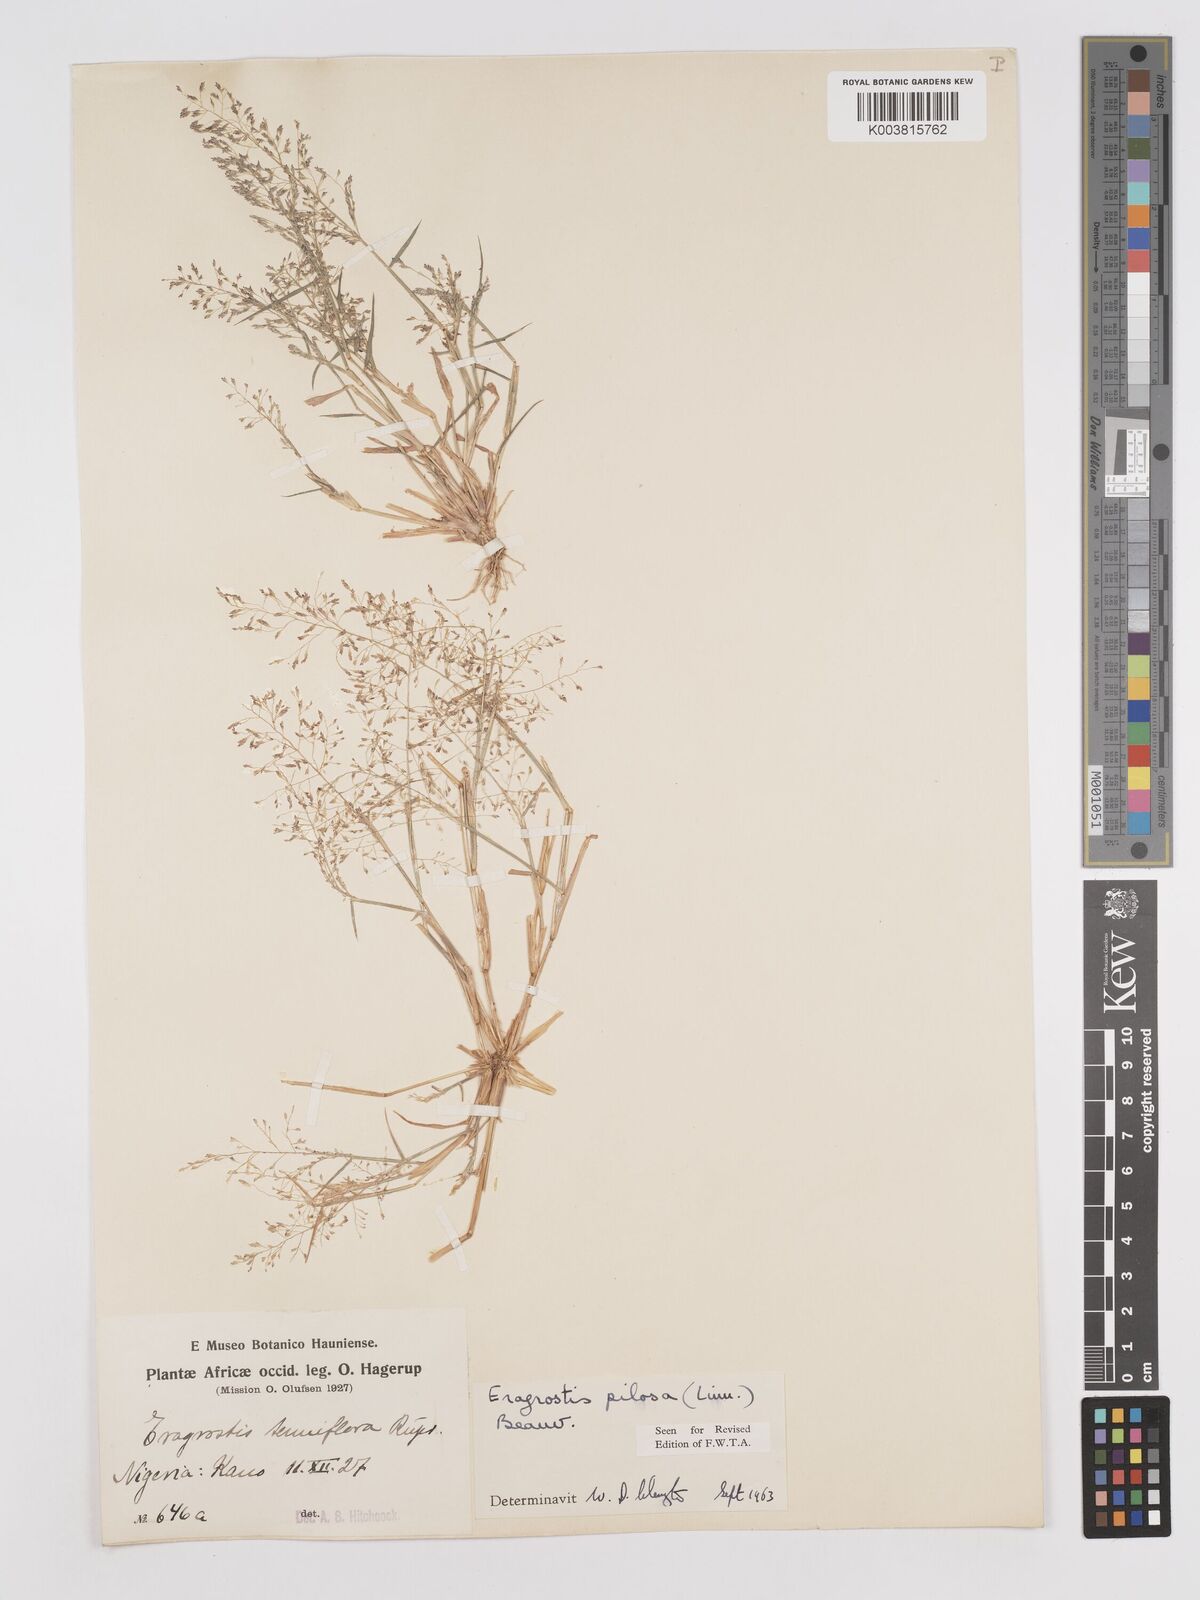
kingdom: Plantae
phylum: Tracheophyta
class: Liliopsida
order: Poales
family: Poaceae
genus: Eragrostis
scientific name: Eragrostis pilosa
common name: Indian lovegrass
